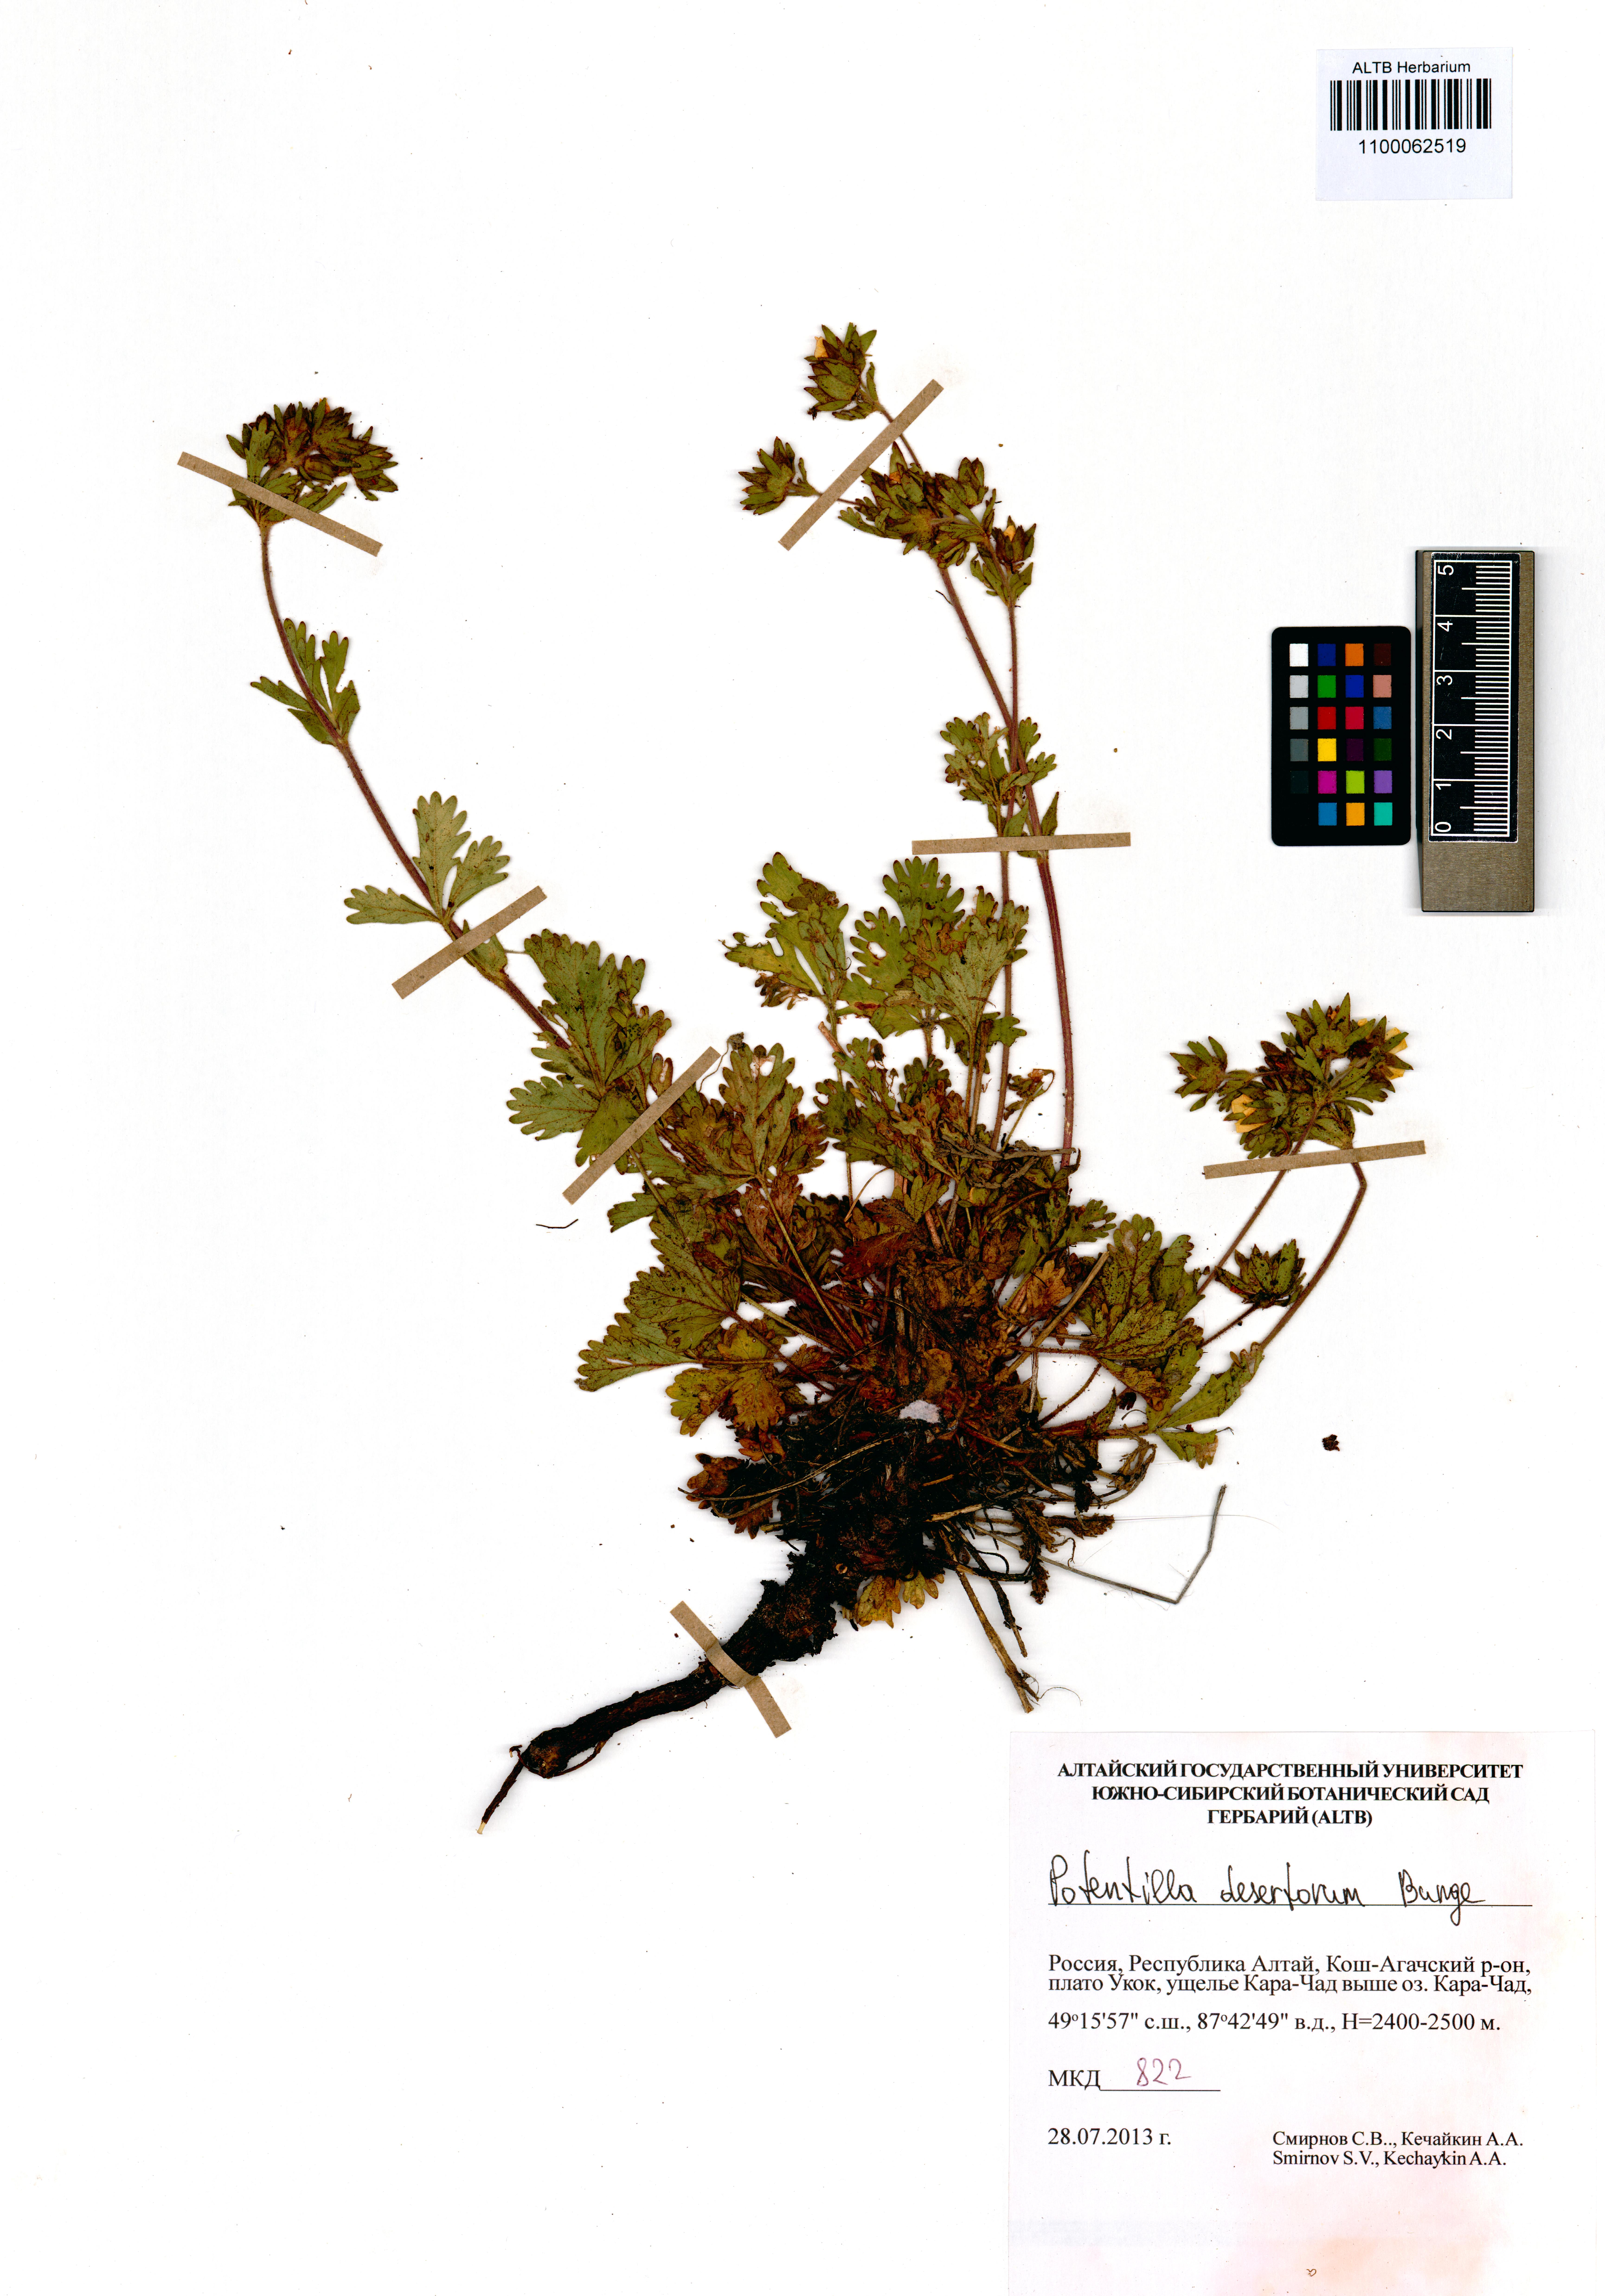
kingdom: Plantae
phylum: Tracheophyta
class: Magnoliopsida
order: Rosales
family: Rosaceae
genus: Potentilla
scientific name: Potentilla desertorum
